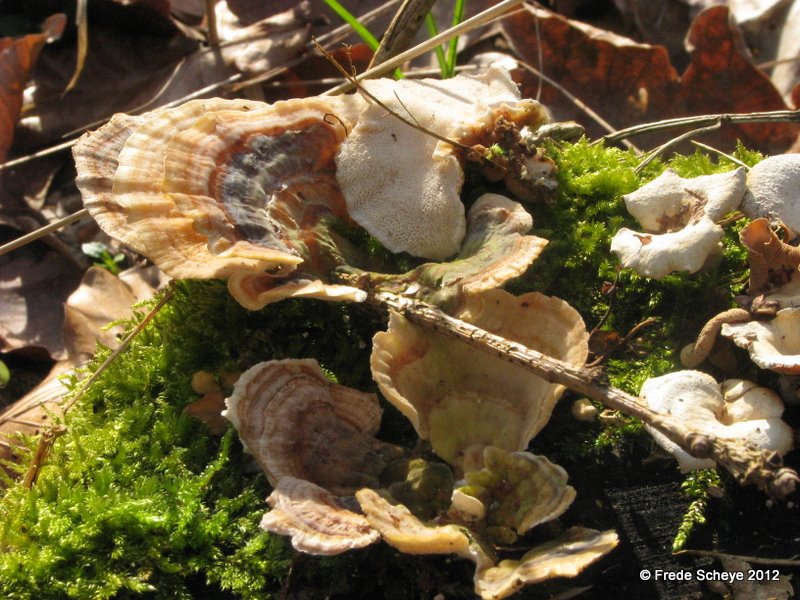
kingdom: Fungi
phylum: Basidiomycota
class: Agaricomycetes
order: Polyporales
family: Polyporaceae
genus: Trametes
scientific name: Trametes versicolor
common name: broget læderporesvamp
